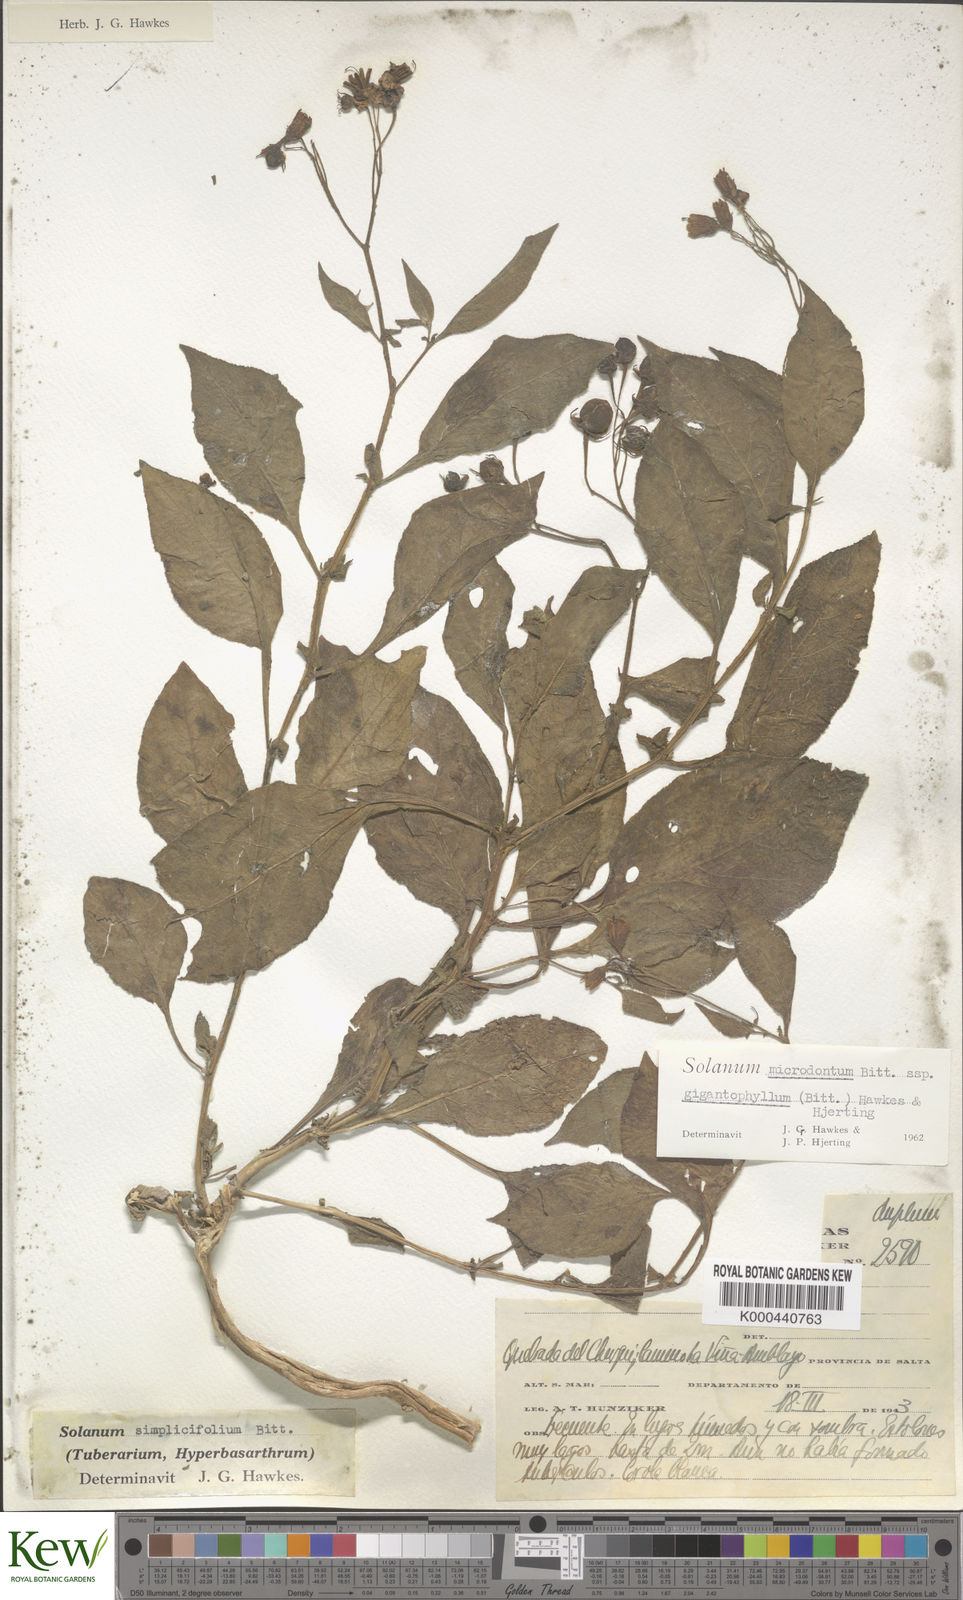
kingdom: Plantae
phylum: Tracheophyta
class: Magnoliopsida
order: Solanales
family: Solanaceae
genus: Solanum
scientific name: Solanum microdontum
